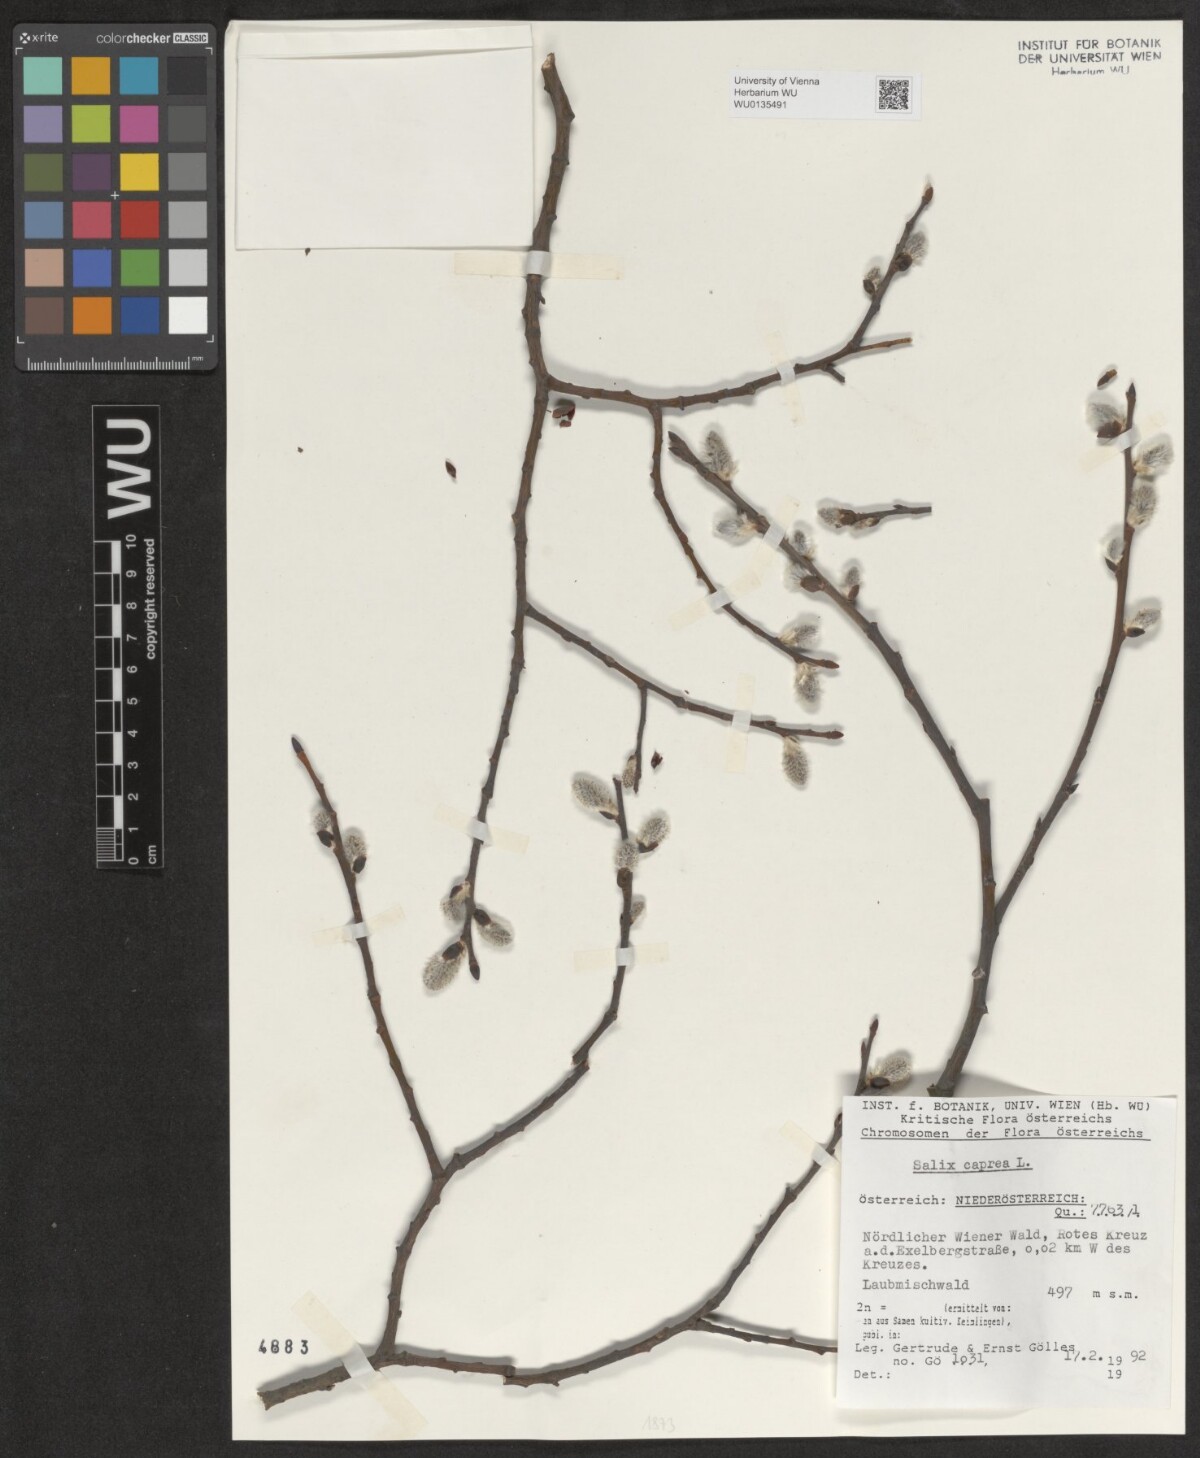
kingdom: Plantae
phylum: Tracheophyta
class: Magnoliopsida
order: Malpighiales
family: Salicaceae
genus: Salix
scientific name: Salix caprea
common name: Goat willow
